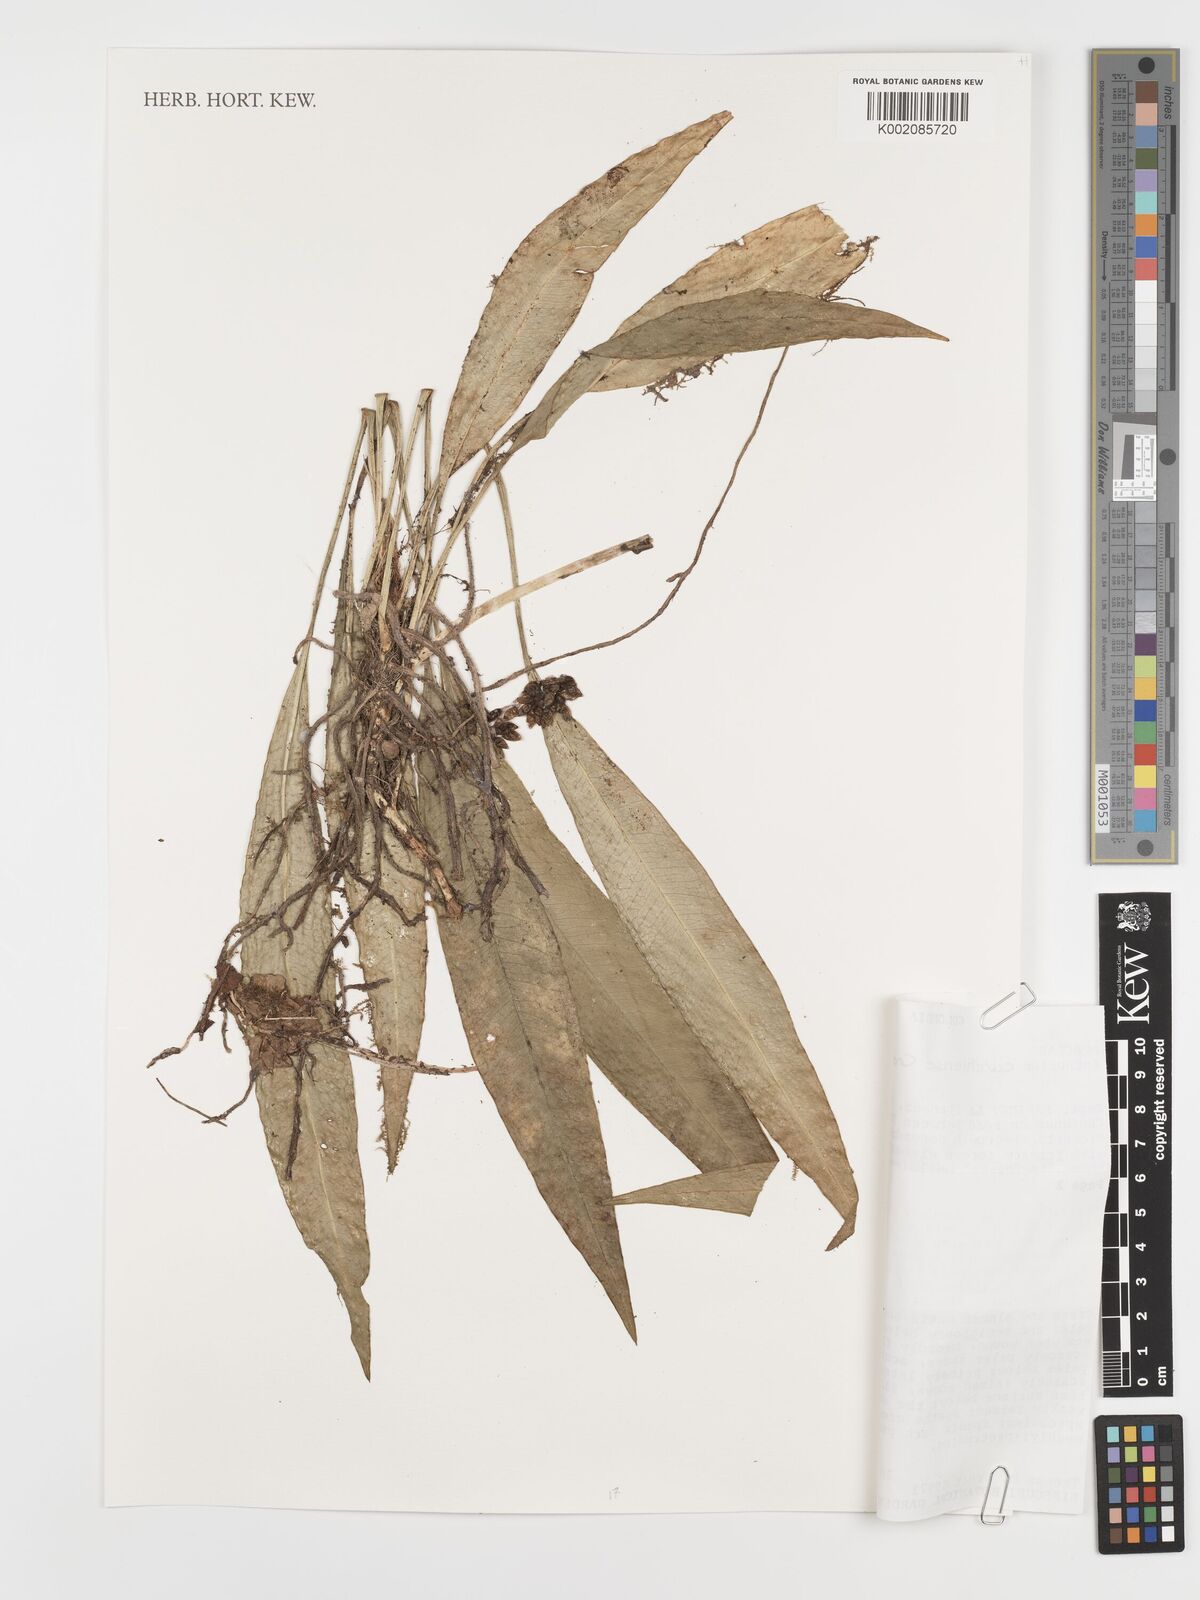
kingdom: Plantae
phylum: Tracheophyta
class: Liliopsida
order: Alismatales
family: Araceae
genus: Anthurium
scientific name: Anthurium carchiense
